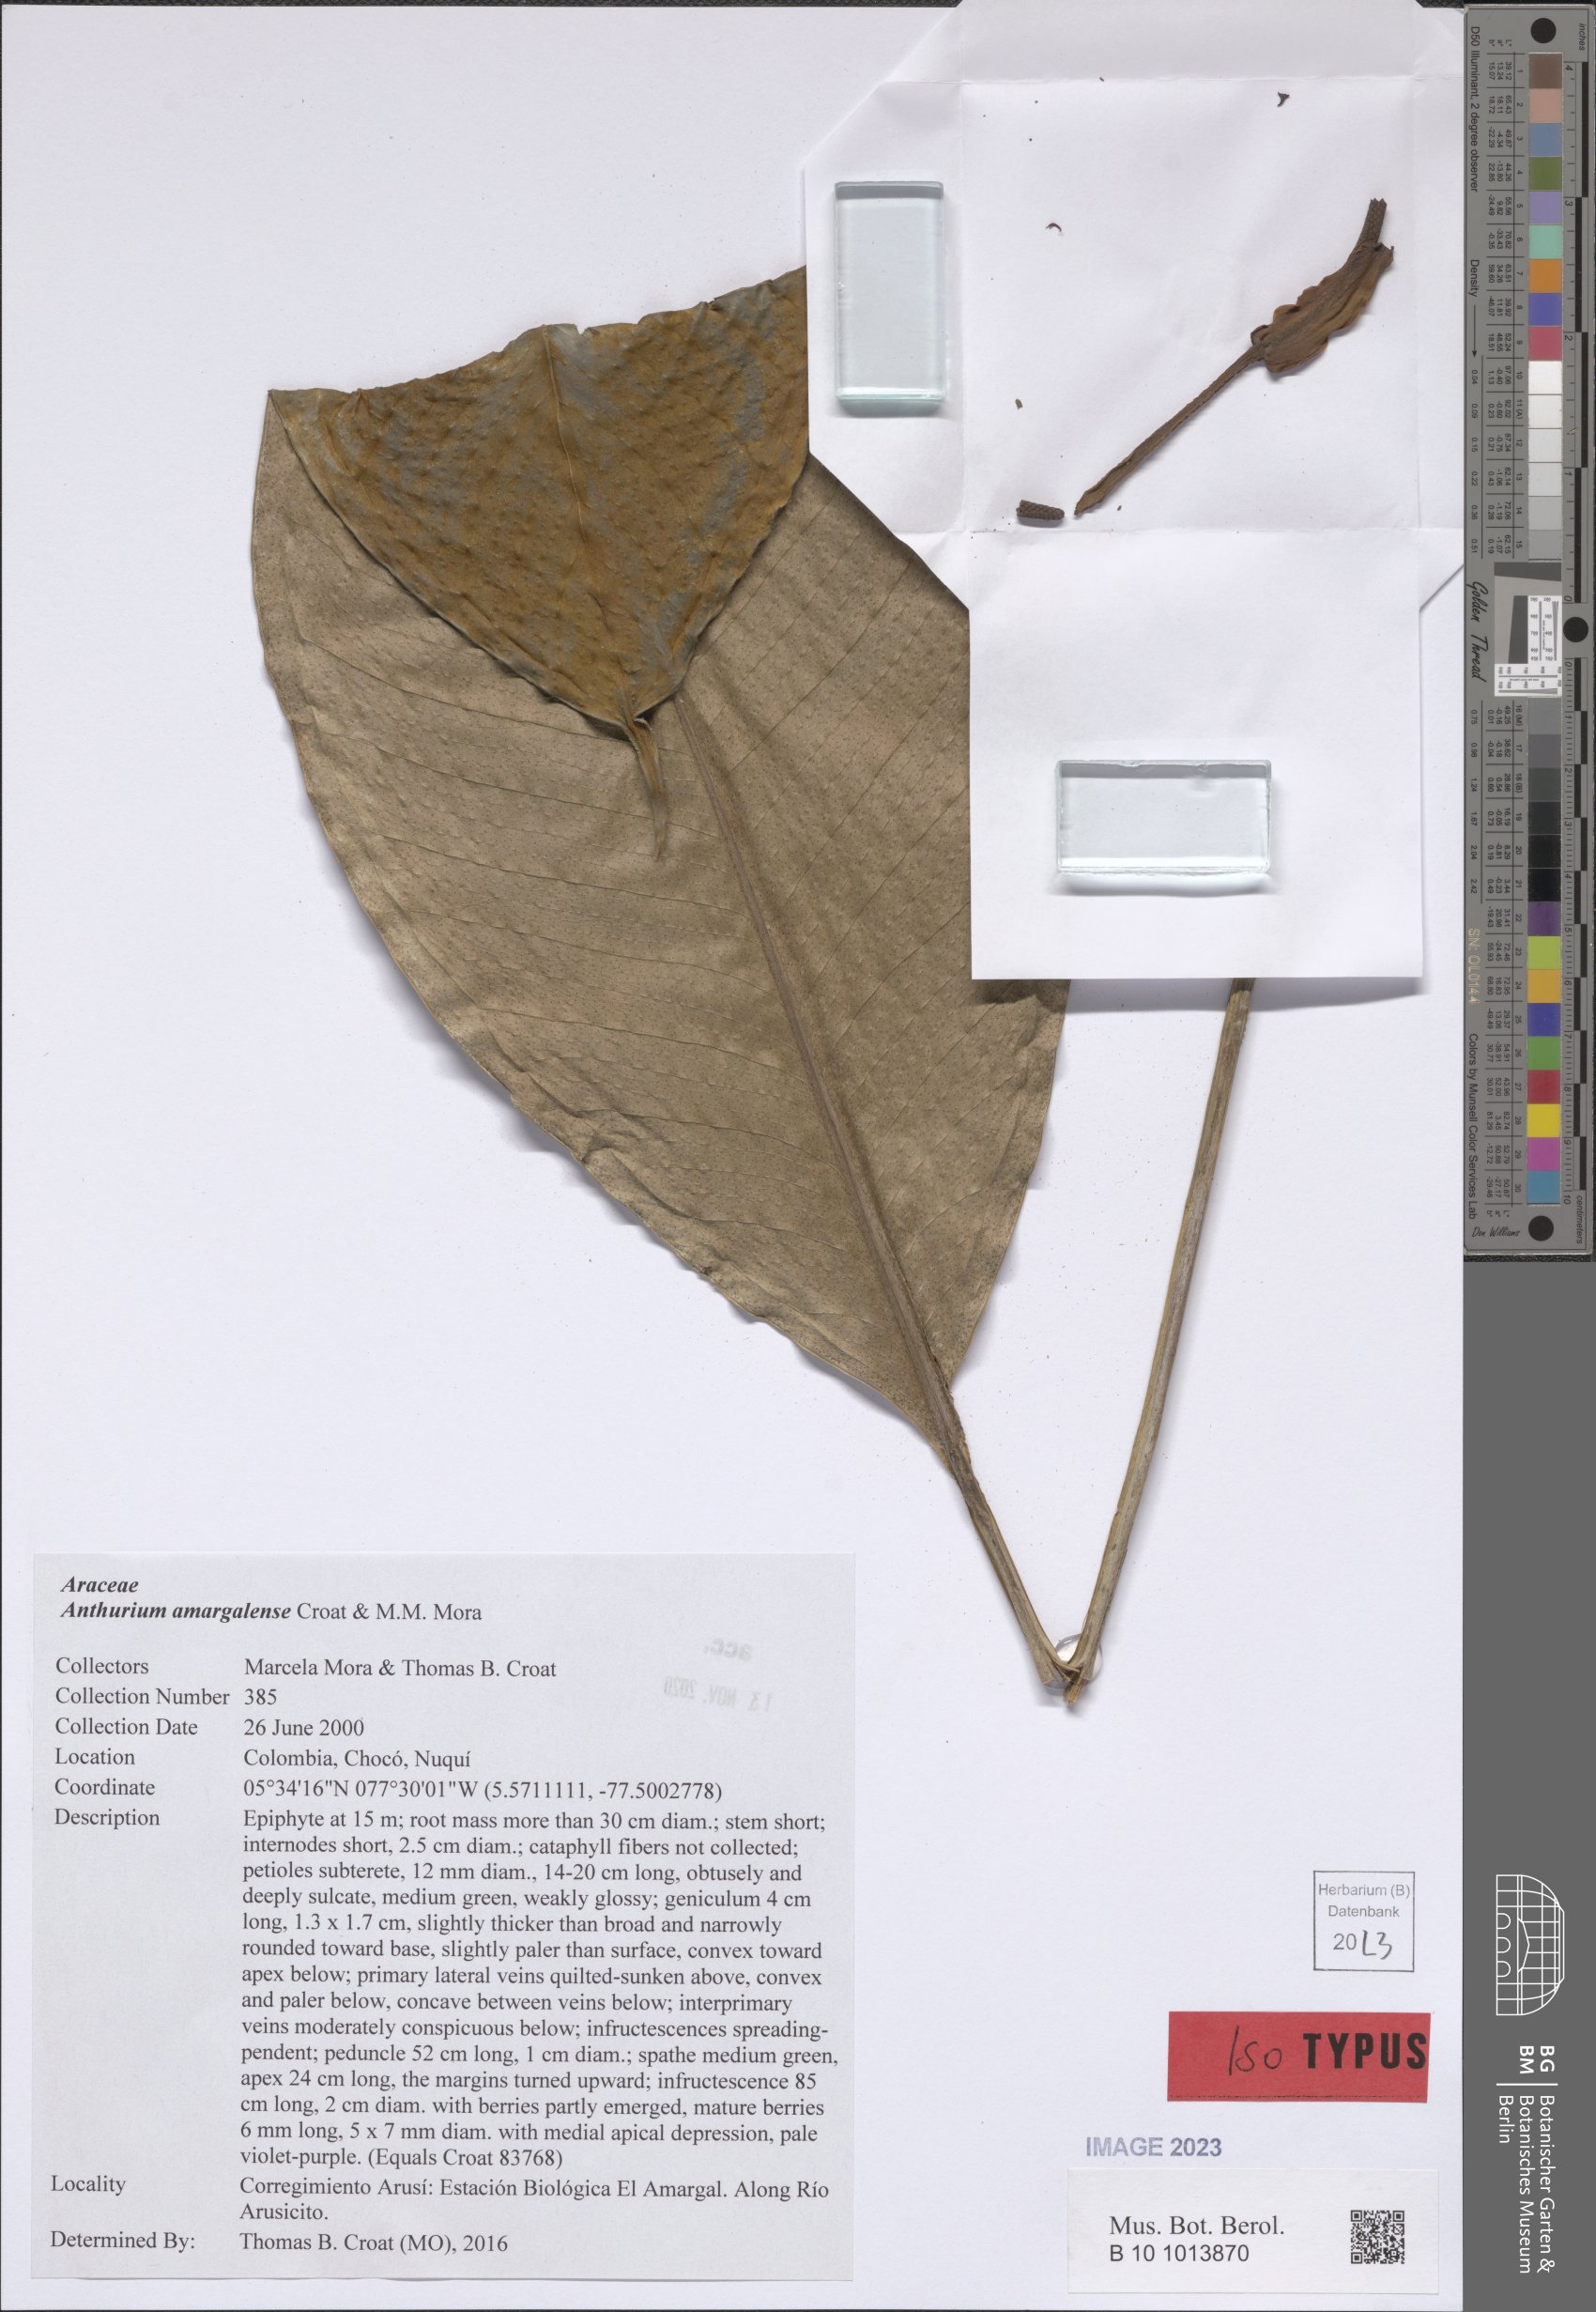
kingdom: Plantae
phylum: Tracheophyta
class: Liliopsida
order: Alismatales
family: Araceae
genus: Anthurium
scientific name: Anthurium amargalense
